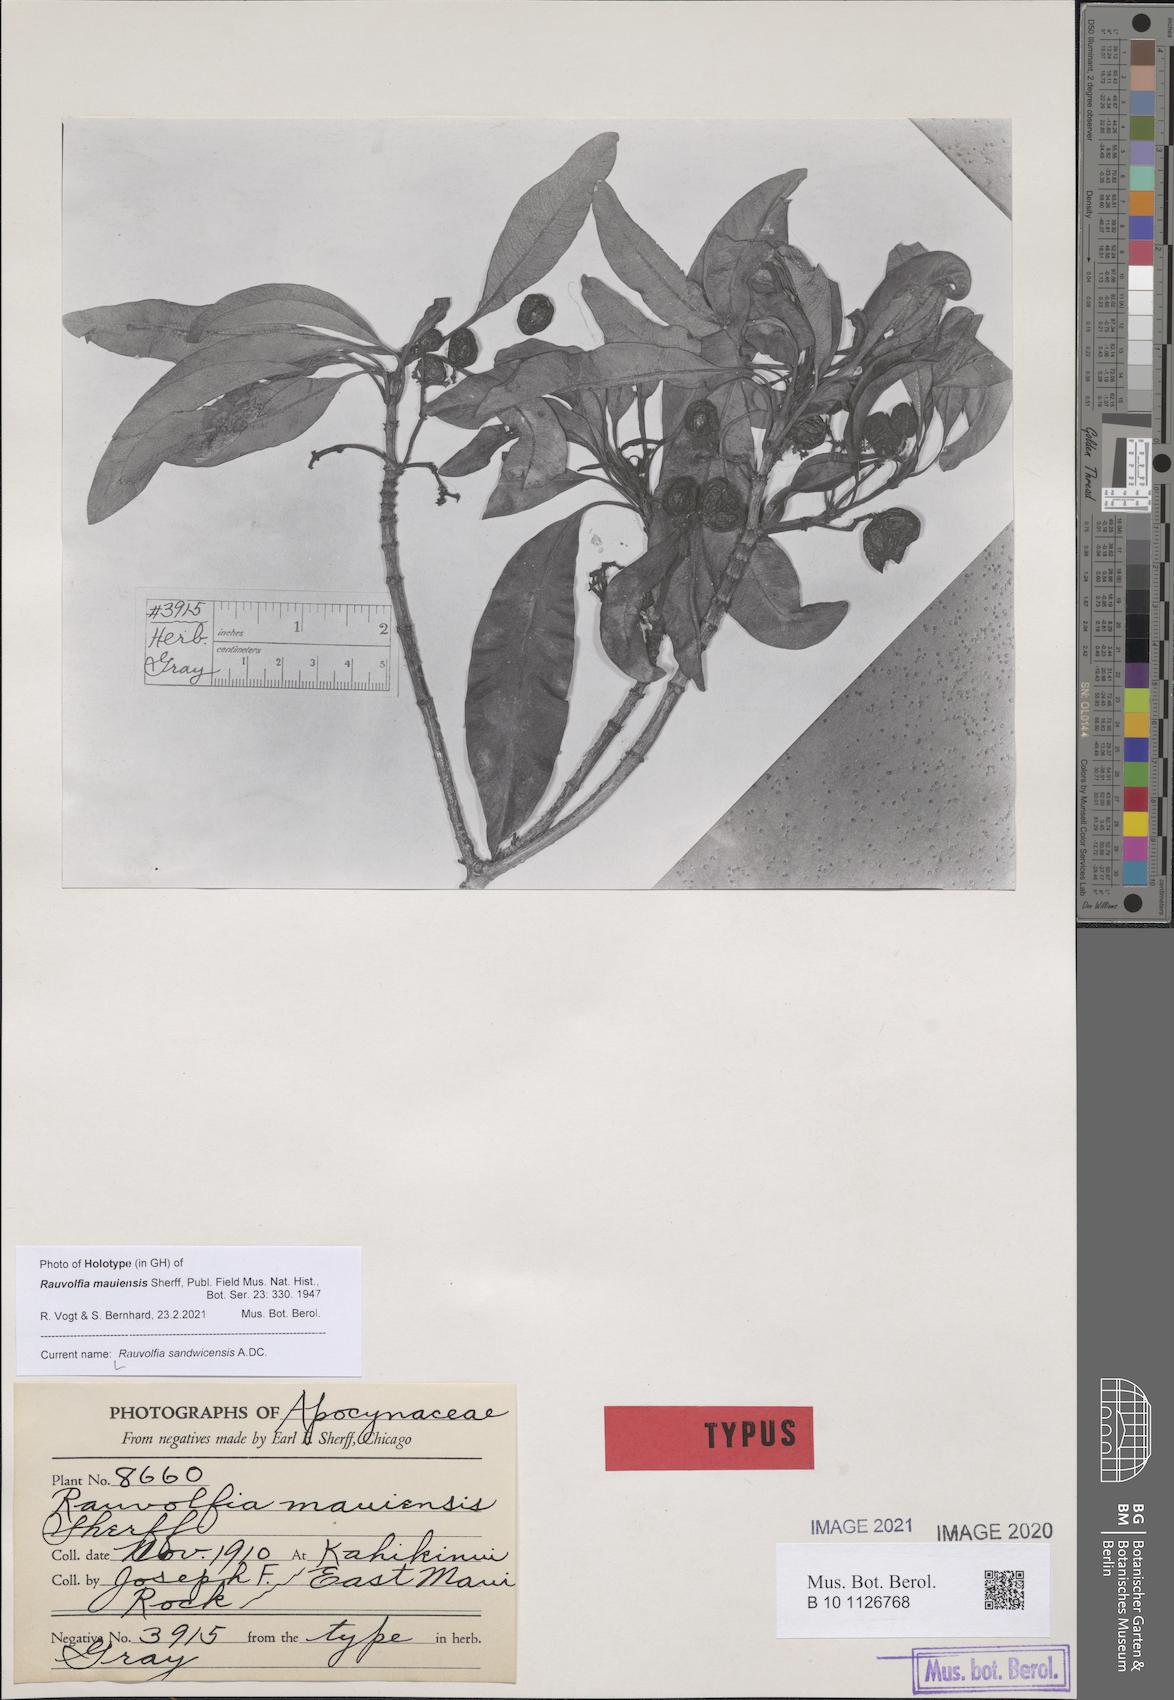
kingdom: Plantae
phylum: Tracheophyta
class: Magnoliopsida
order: Gentianales
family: Apocynaceae
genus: Rauvolfia
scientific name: Rauvolfia sandwicensis
